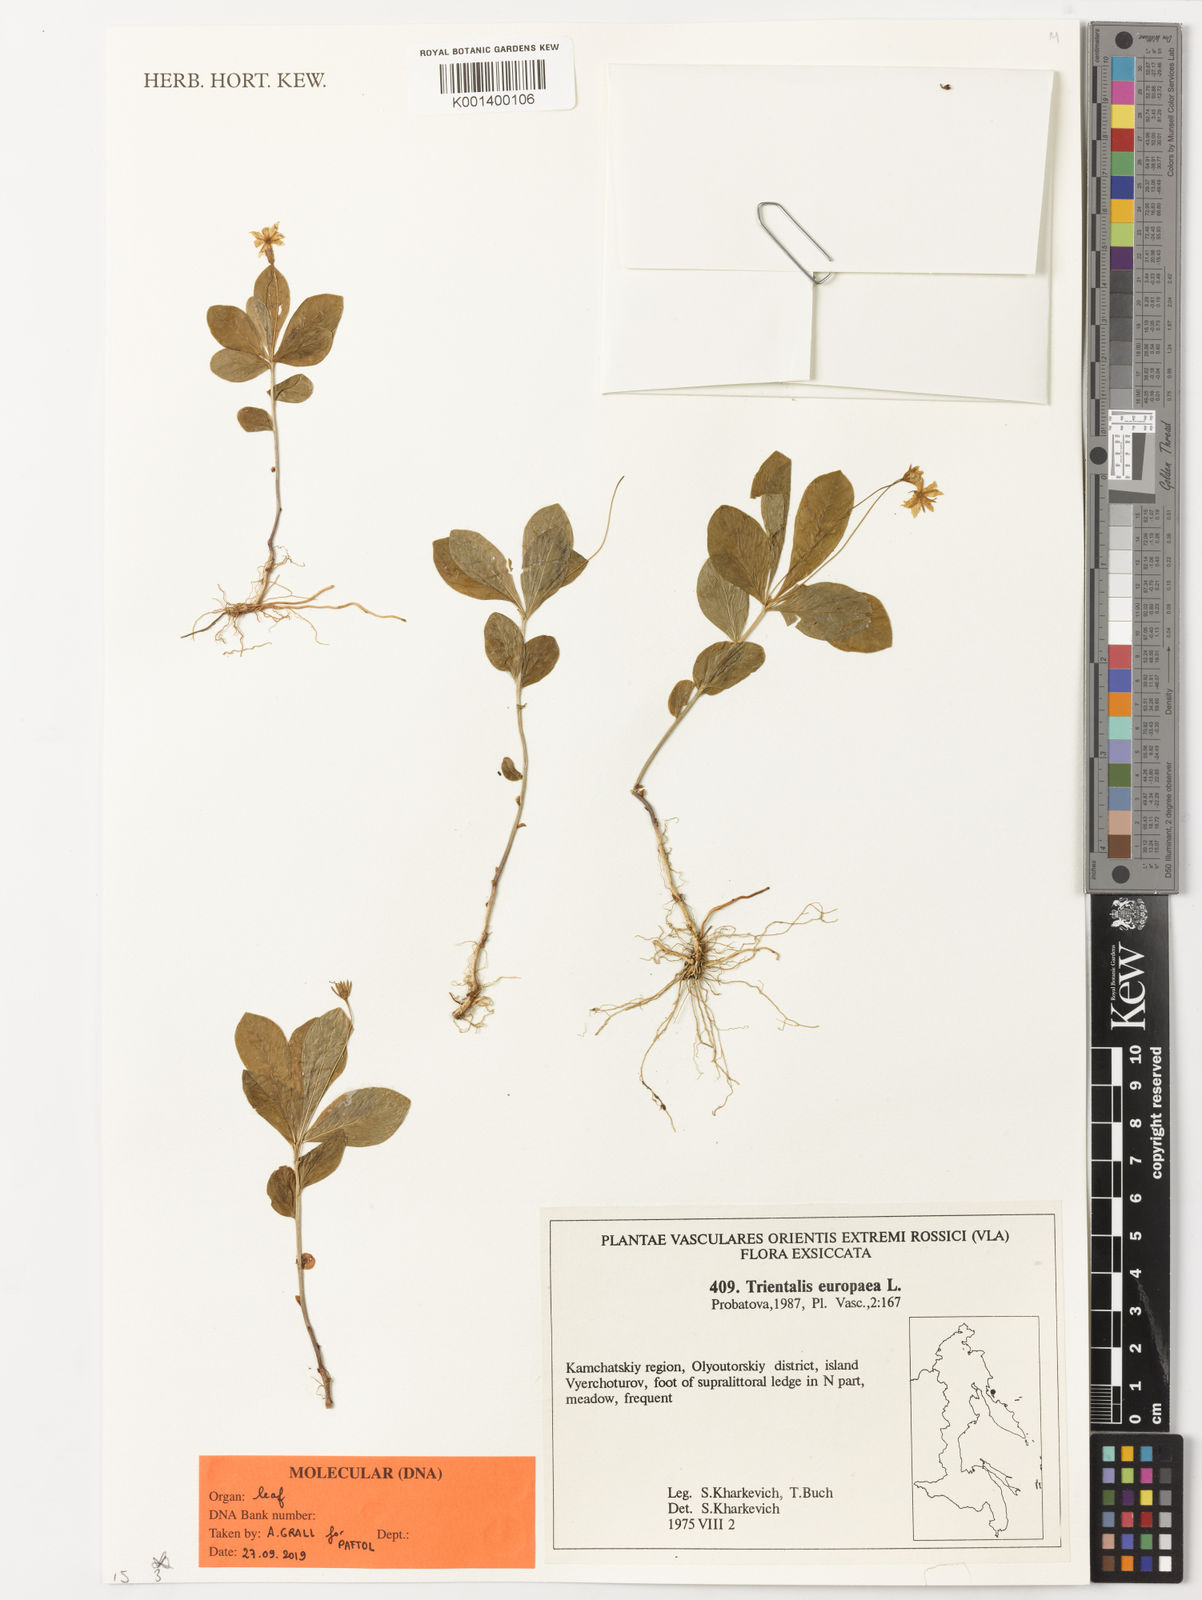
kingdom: Plantae
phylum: Tracheophyta
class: Magnoliopsida
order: Ericales
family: Primulaceae
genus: Lysimachia
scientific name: Lysimachia europaea
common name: Arctic starflower
